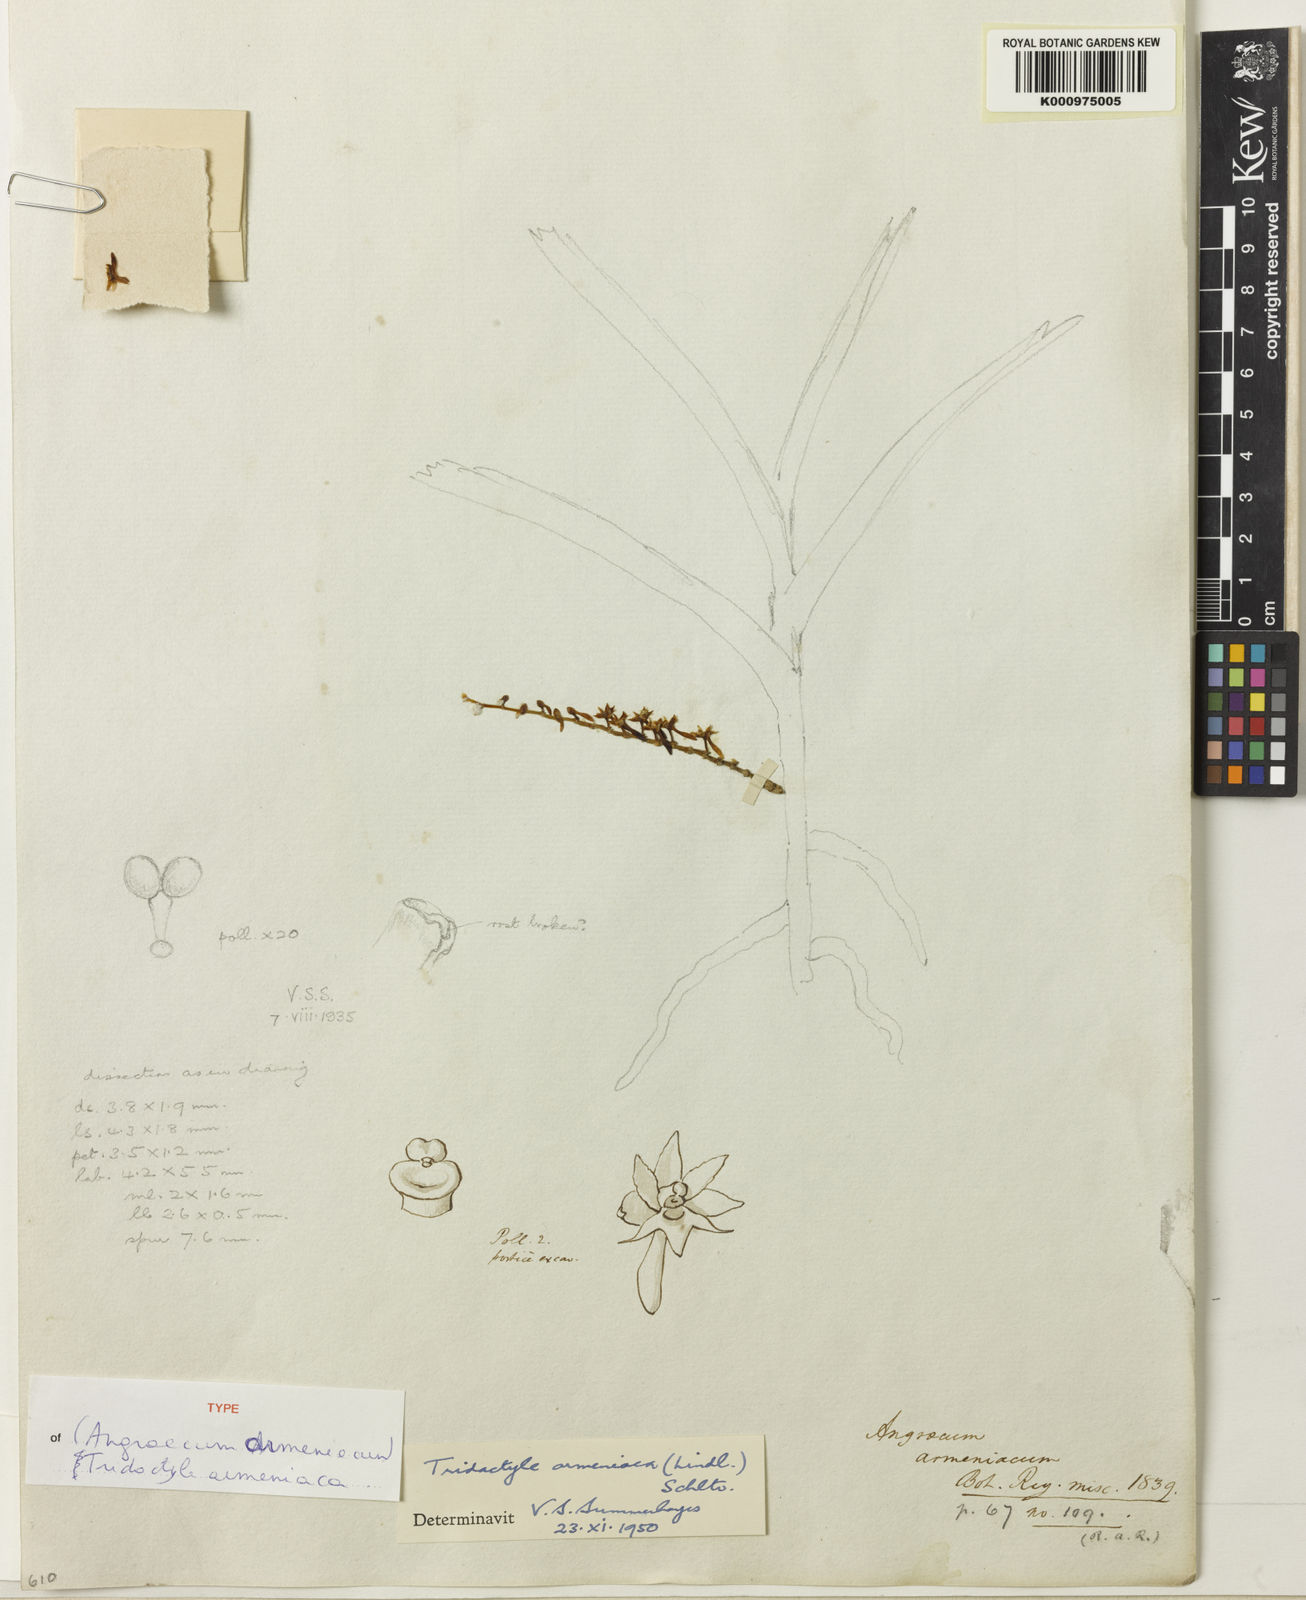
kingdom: Plantae
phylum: Tracheophyta
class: Liliopsida
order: Asparagales
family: Orchidaceae
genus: Tridactyle
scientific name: Tridactyle armeniaca
